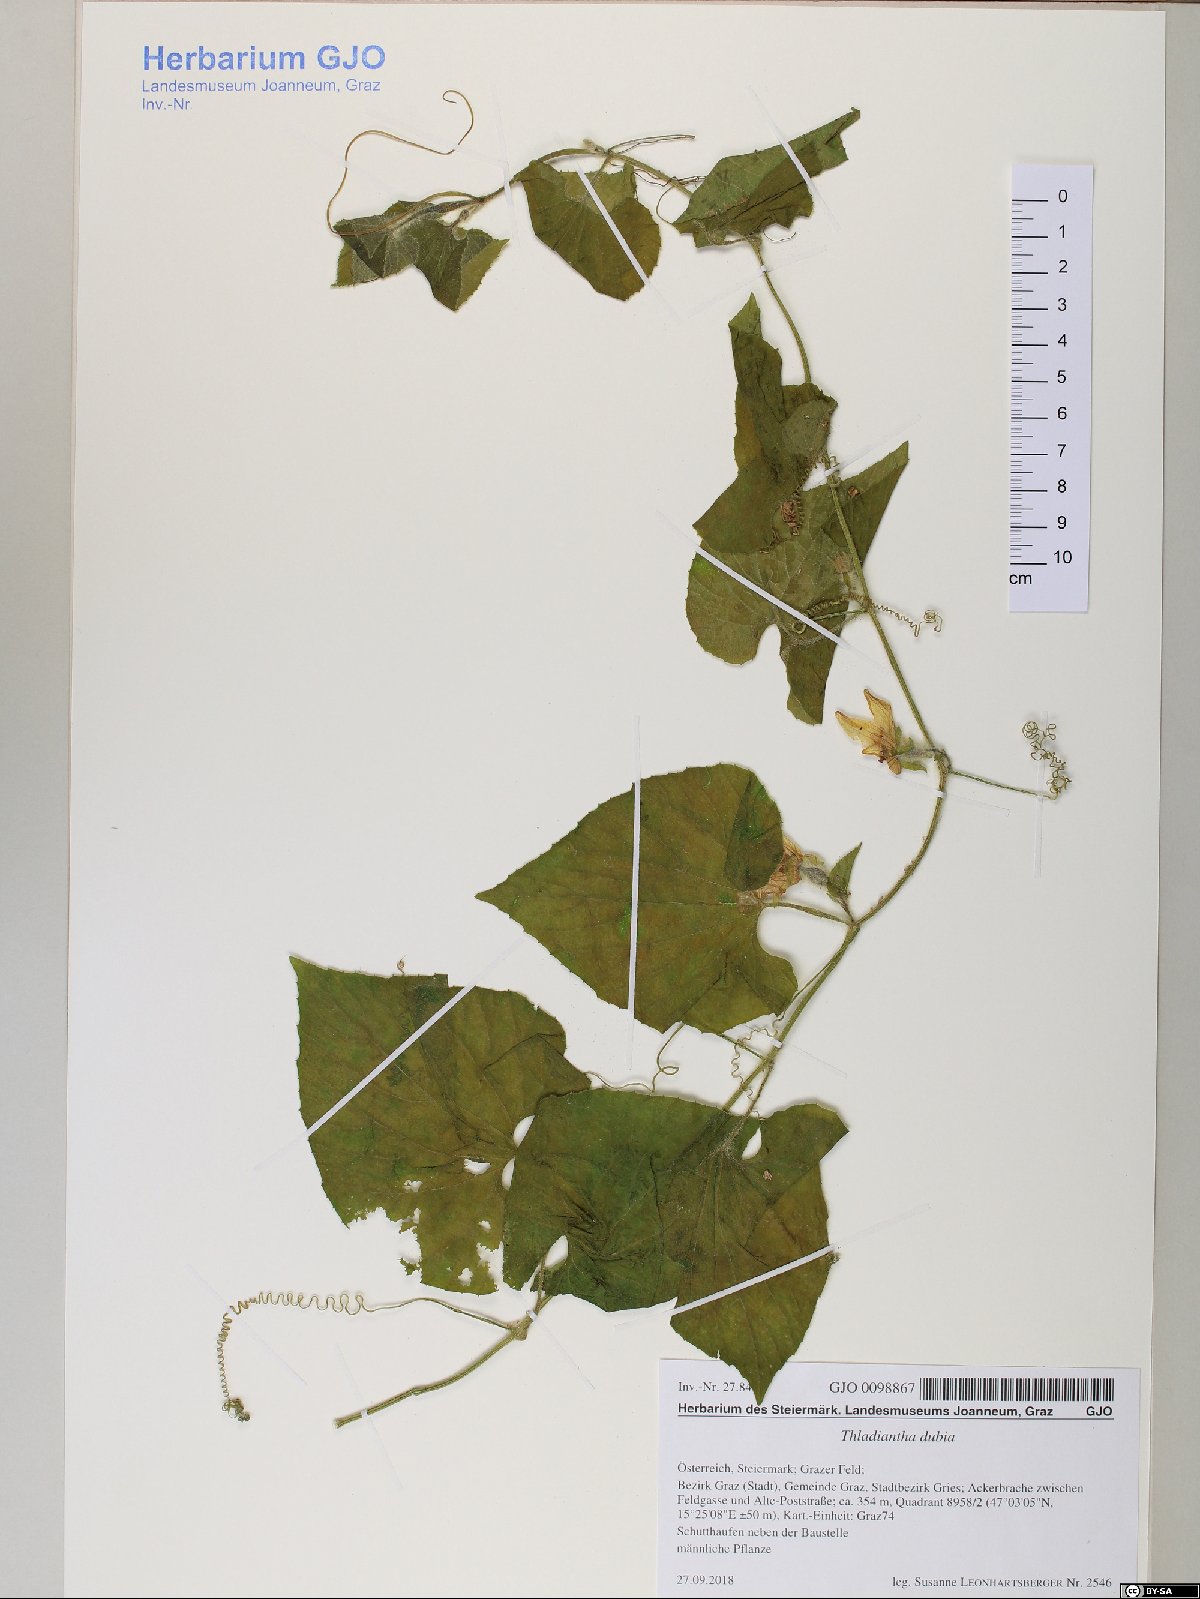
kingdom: Plantae
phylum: Tracheophyta
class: Magnoliopsida
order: Cucurbitales
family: Cucurbitaceae
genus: Thladiantha
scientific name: Thladiantha dubia
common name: Manchu tubergourd
